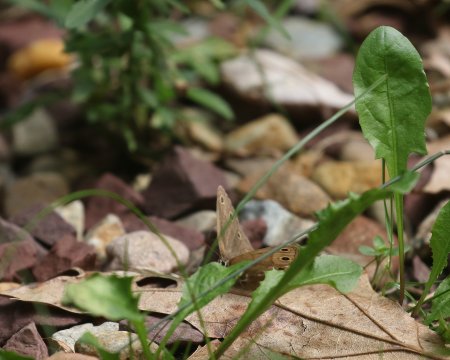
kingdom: Animalia
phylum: Arthropoda
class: Insecta
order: Lepidoptera
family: Nymphalidae
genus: Euptychia
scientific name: Euptychia cymela
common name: Little Wood Satyr
